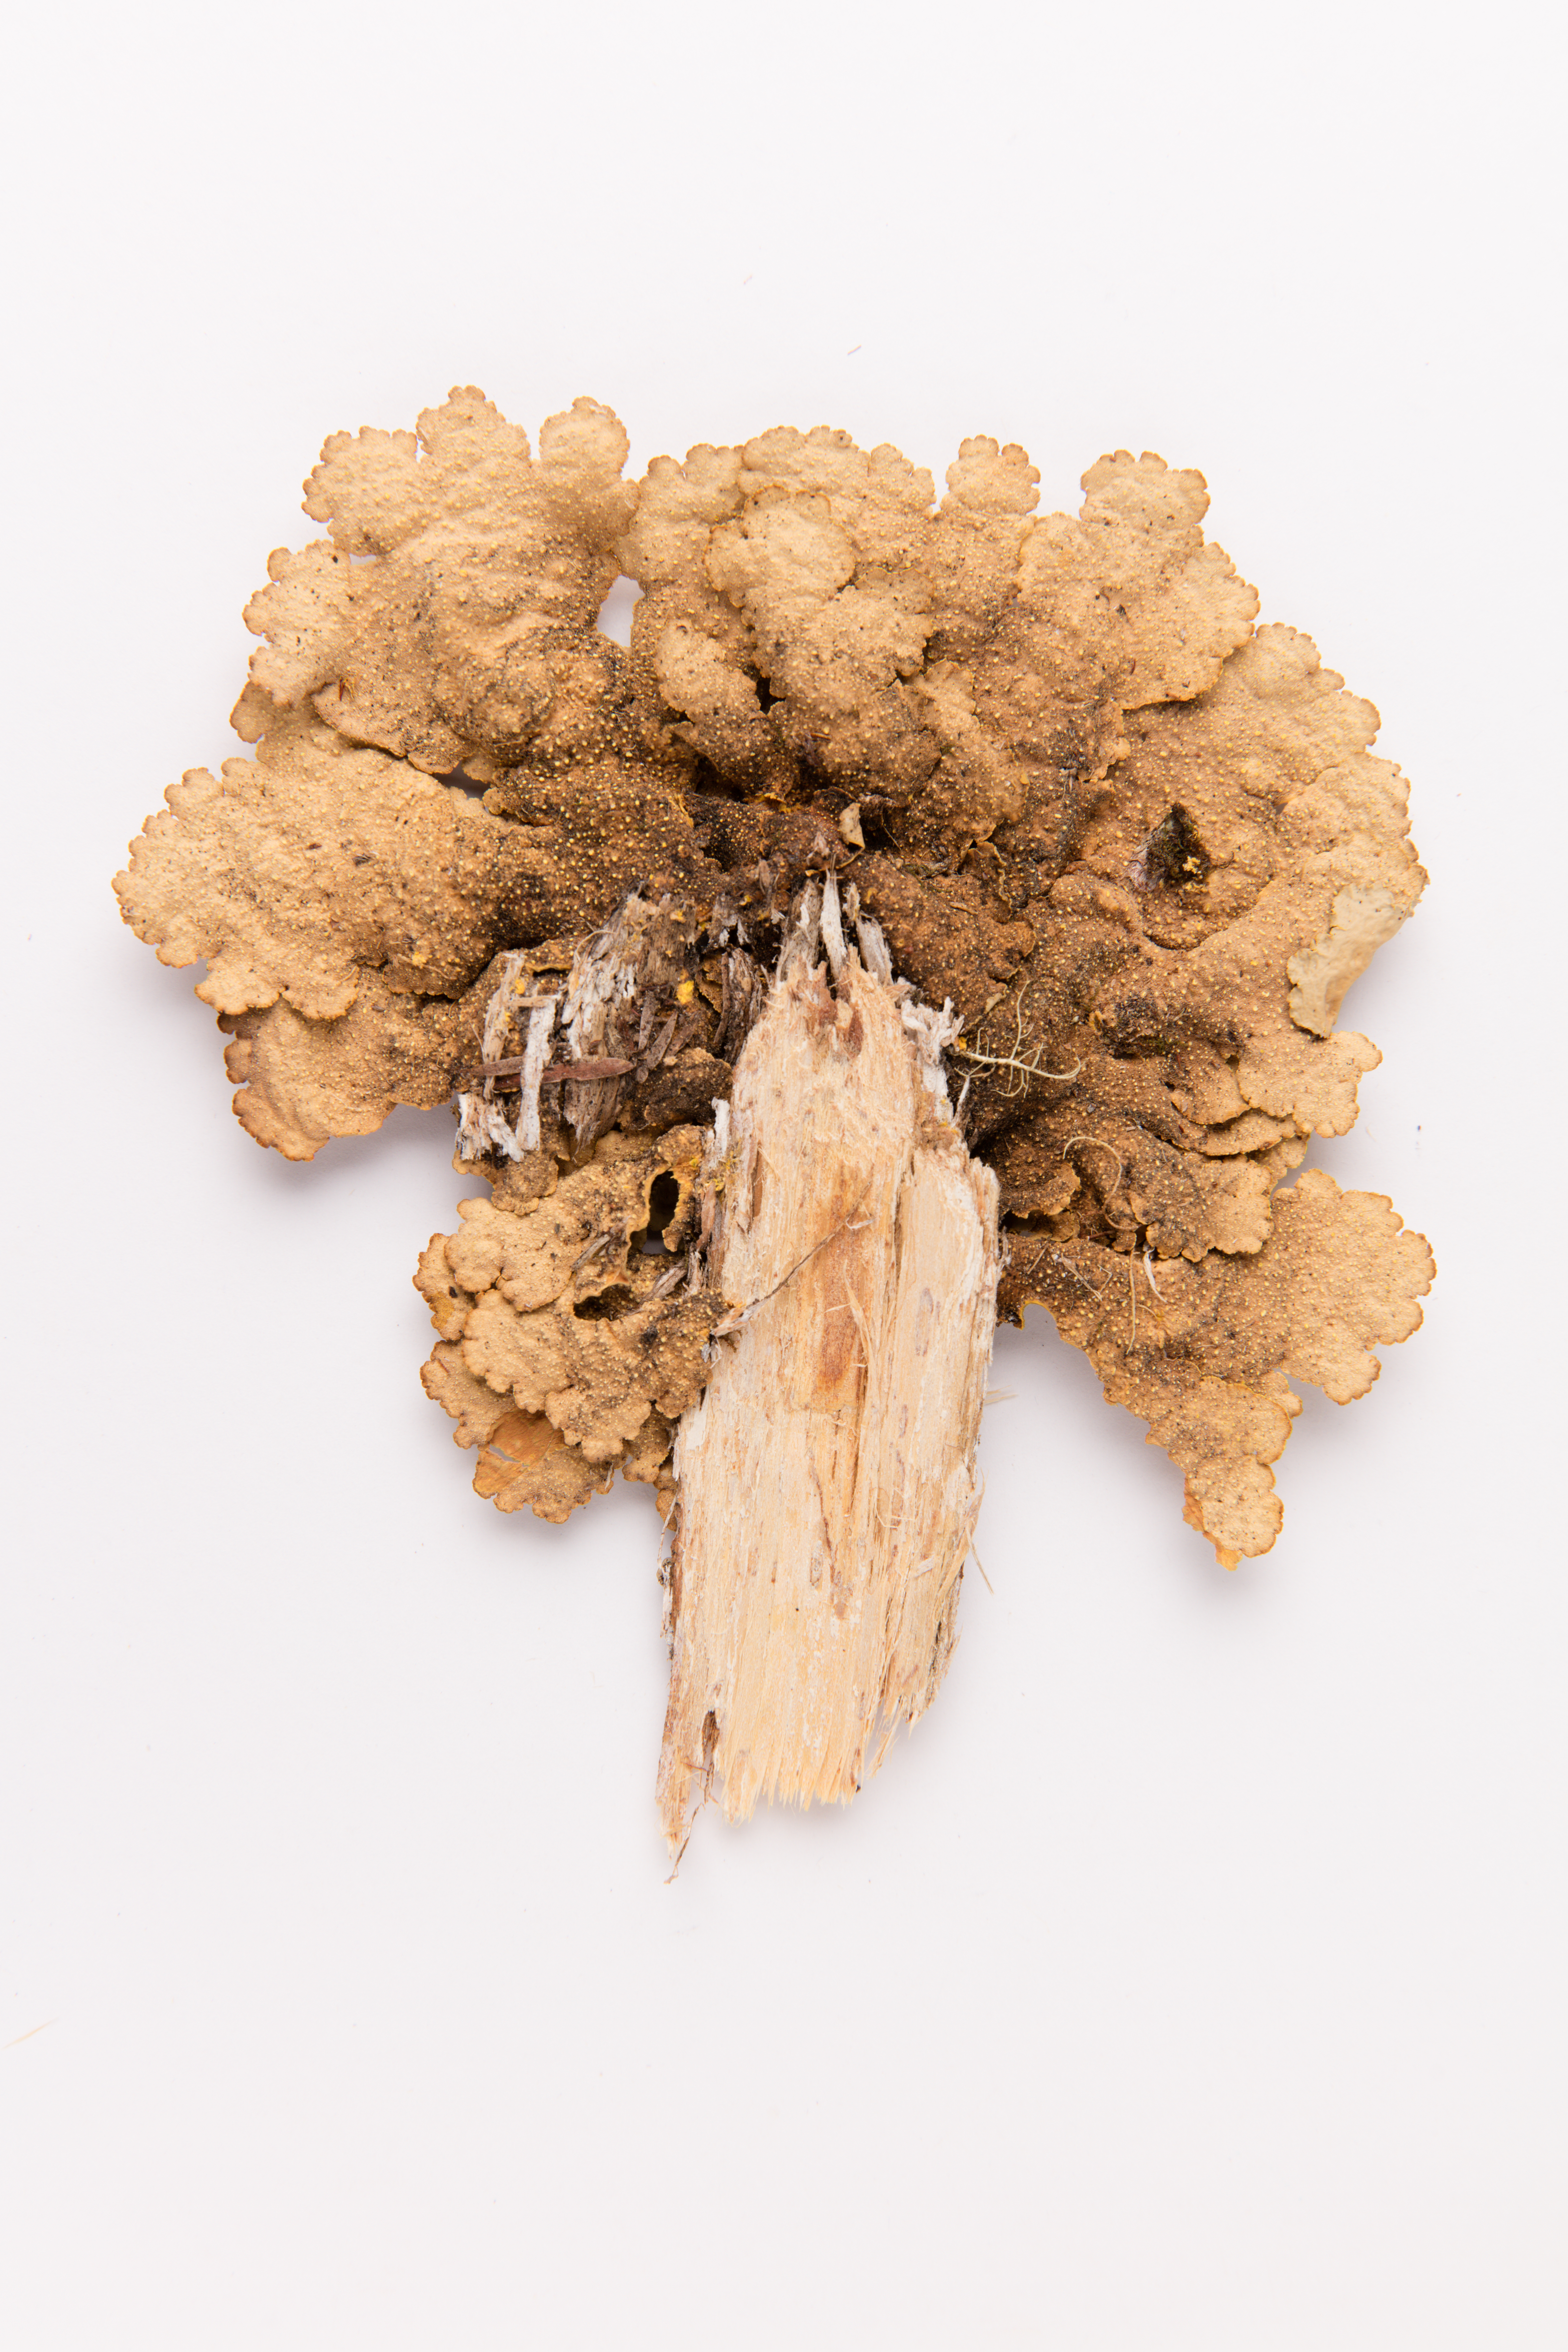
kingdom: Fungi
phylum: Ascomycota
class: Lecanoromycetes
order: Peltigerales
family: Lobariaceae
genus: Yarrumia
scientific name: Yarrumia coronata
